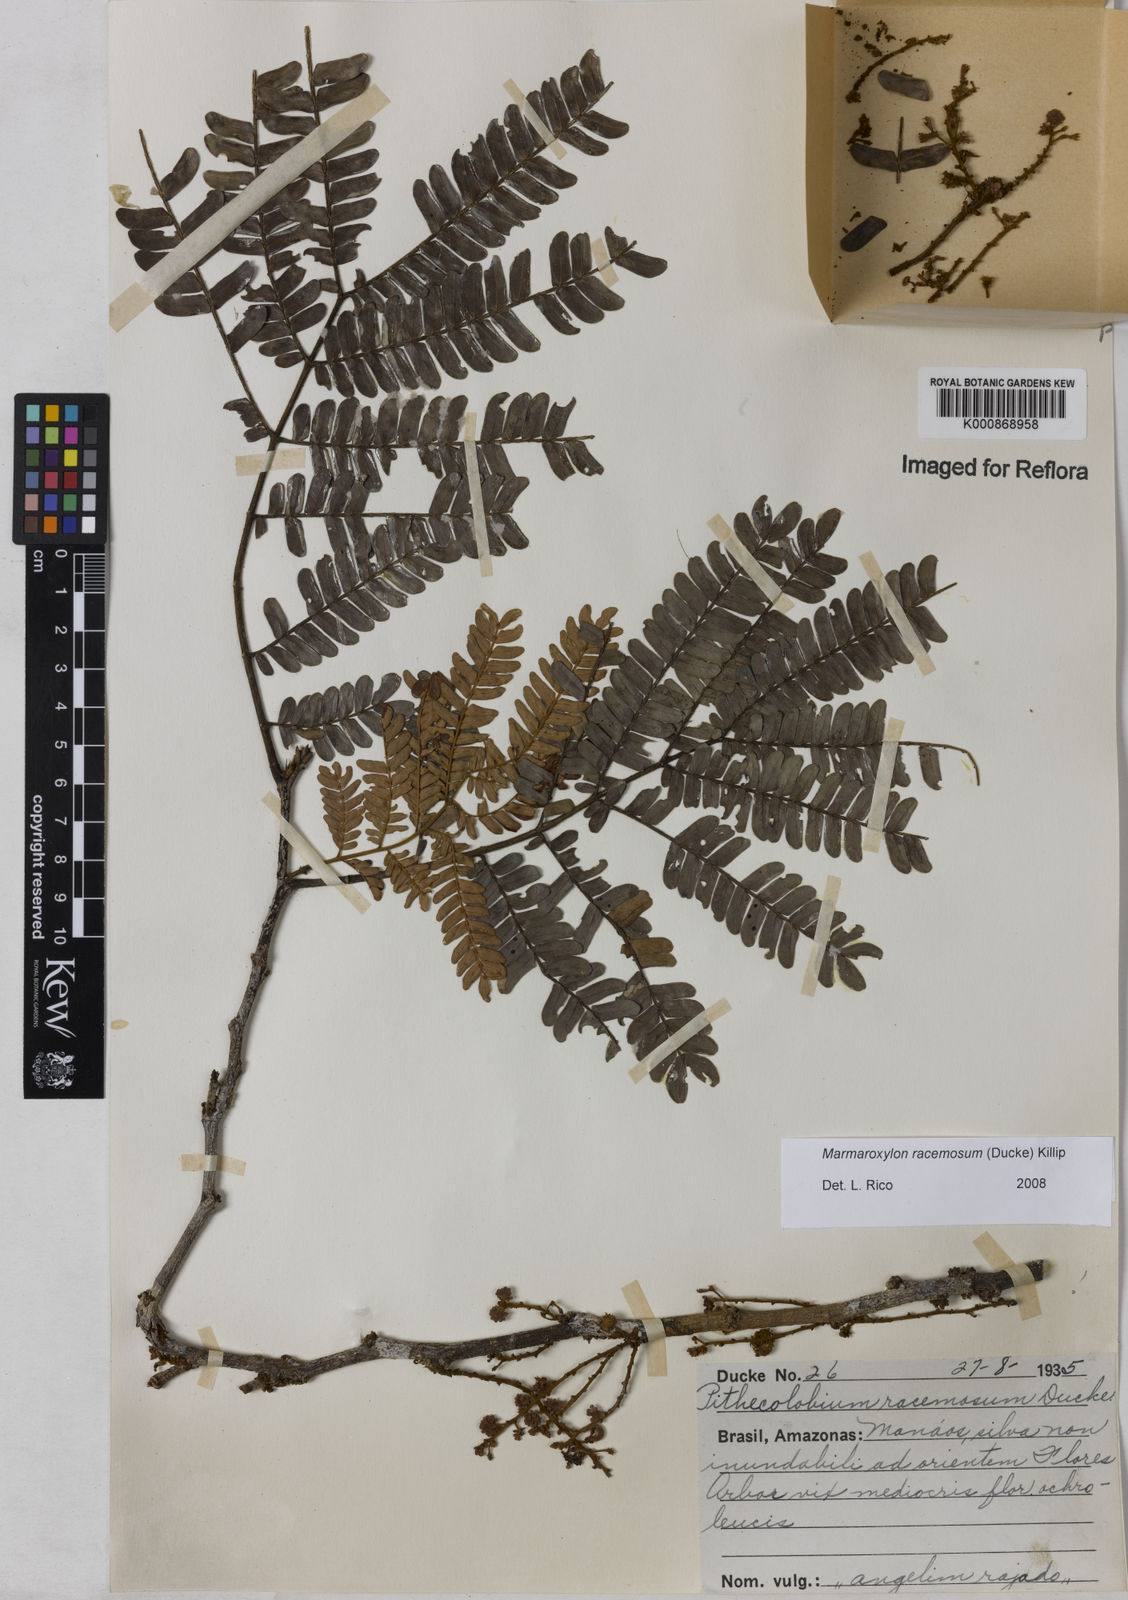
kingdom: Plantae
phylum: Tracheophyta
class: Magnoliopsida
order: Fabales
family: Fabaceae
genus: Zygia
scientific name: Zygia racemosa
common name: Marblewood
